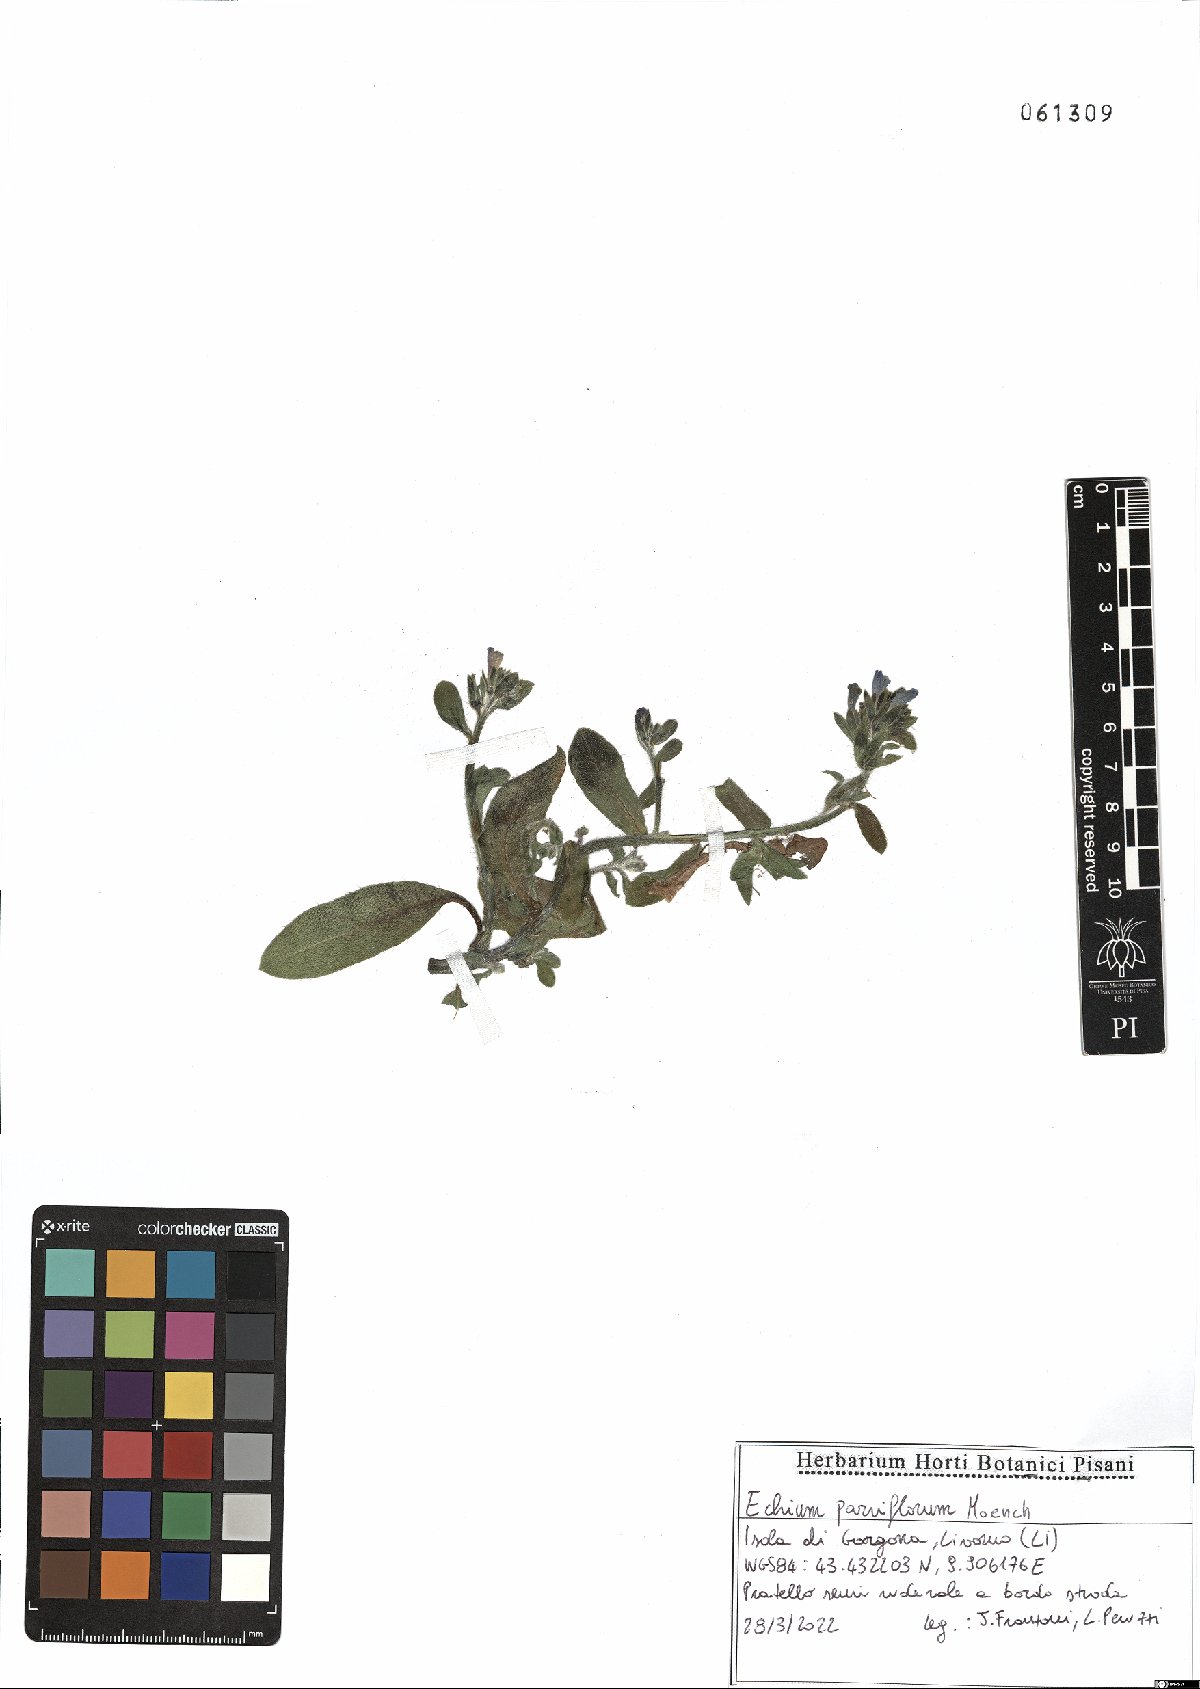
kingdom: Plantae
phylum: Tracheophyta
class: Magnoliopsida
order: Boraginales
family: Boraginaceae
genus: Echium
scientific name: Echium parviflorum
